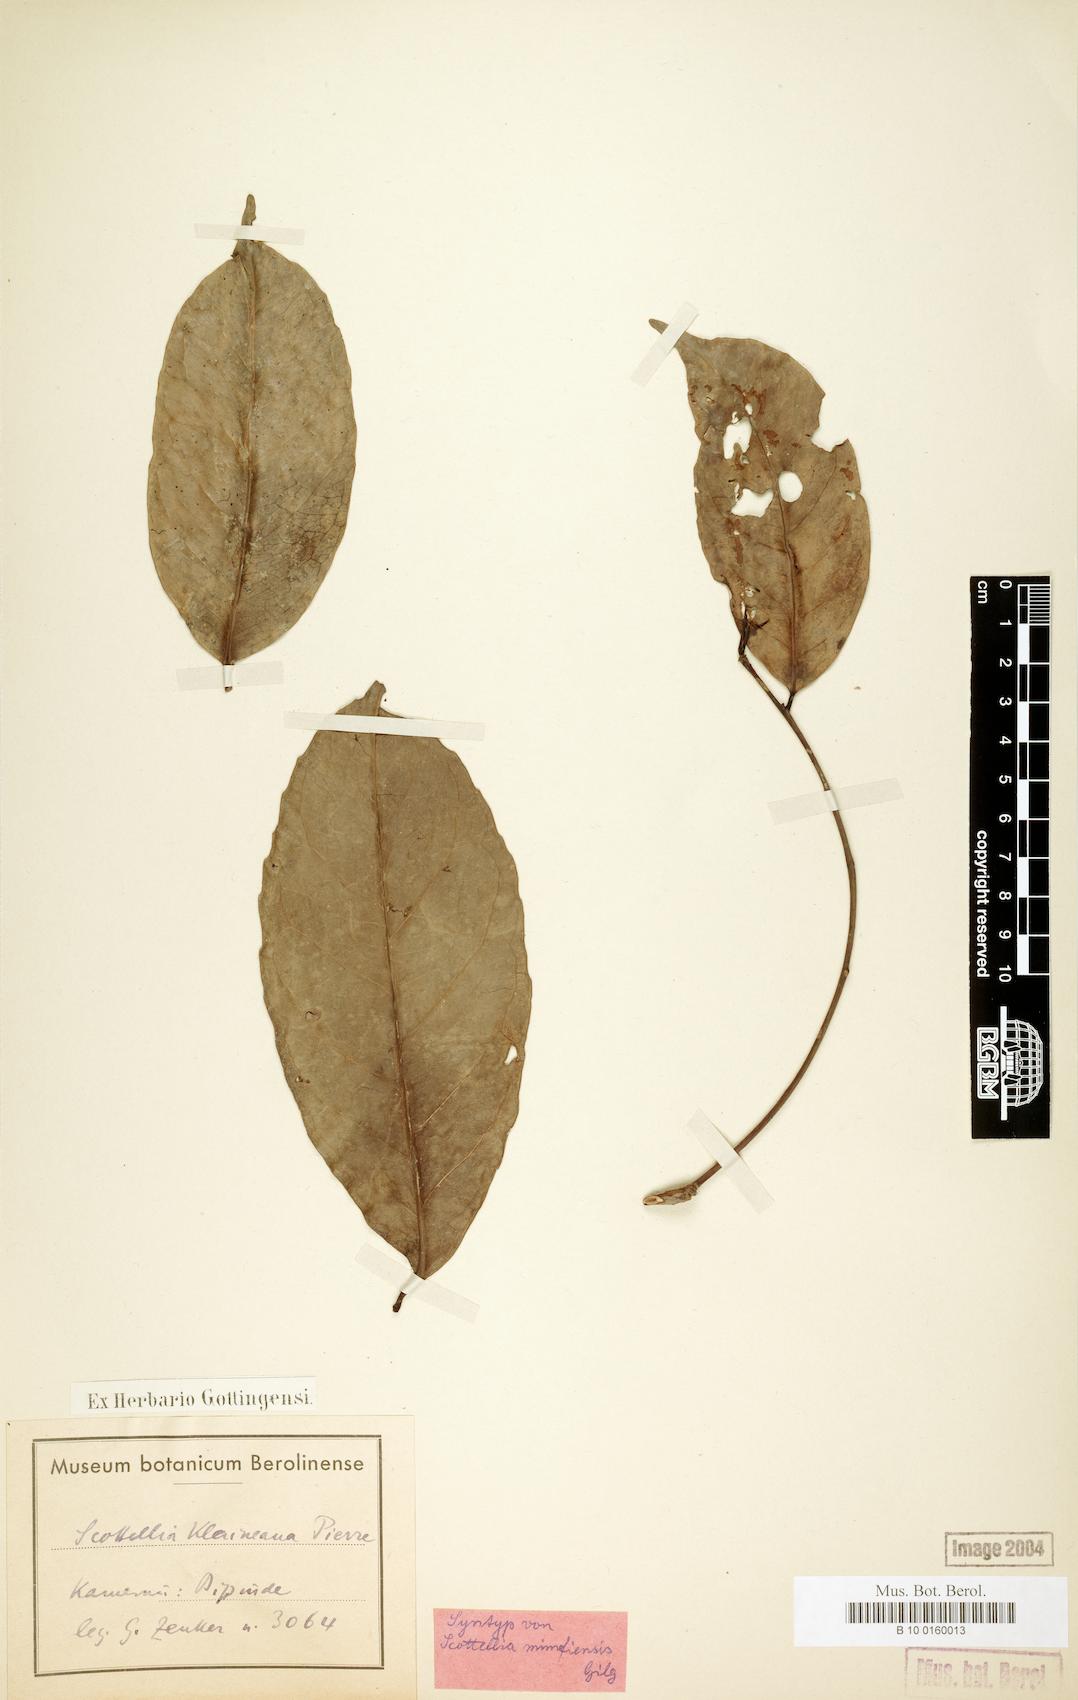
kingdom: Plantae
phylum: Tracheophyta
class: Magnoliopsida
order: Malpighiales
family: Achariaceae
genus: Scottellia
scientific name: Scottellia klaineana
